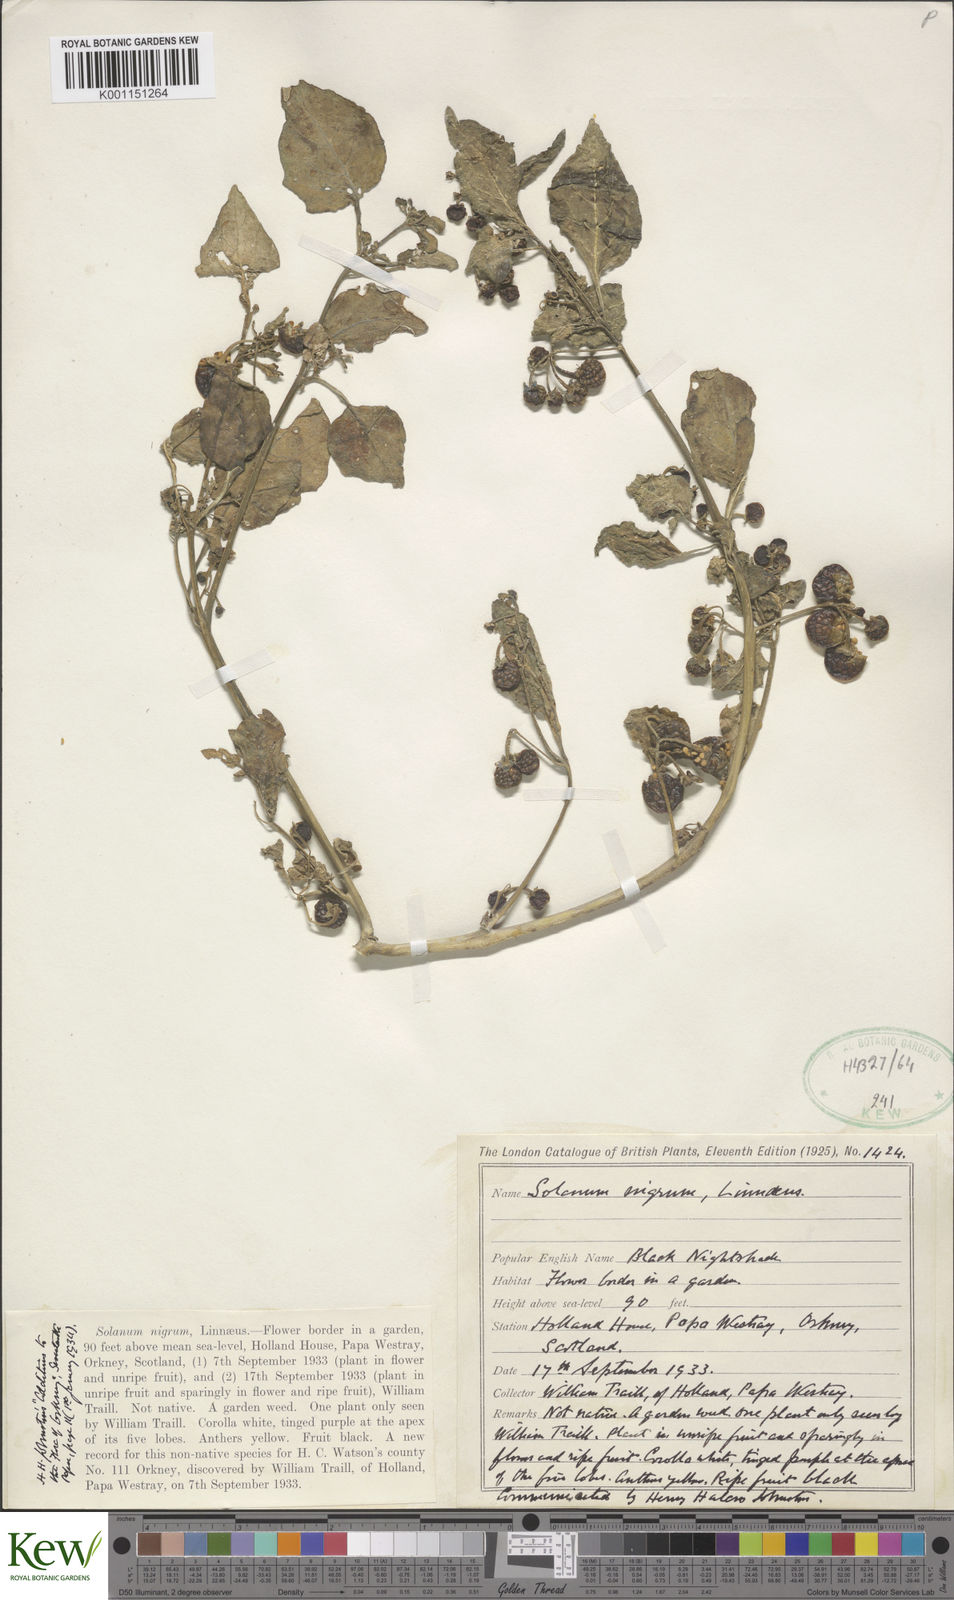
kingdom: Plantae
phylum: Tracheophyta
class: Magnoliopsida
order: Solanales
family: Solanaceae
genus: Solanum
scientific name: Solanum nigrum
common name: Black nightshade
